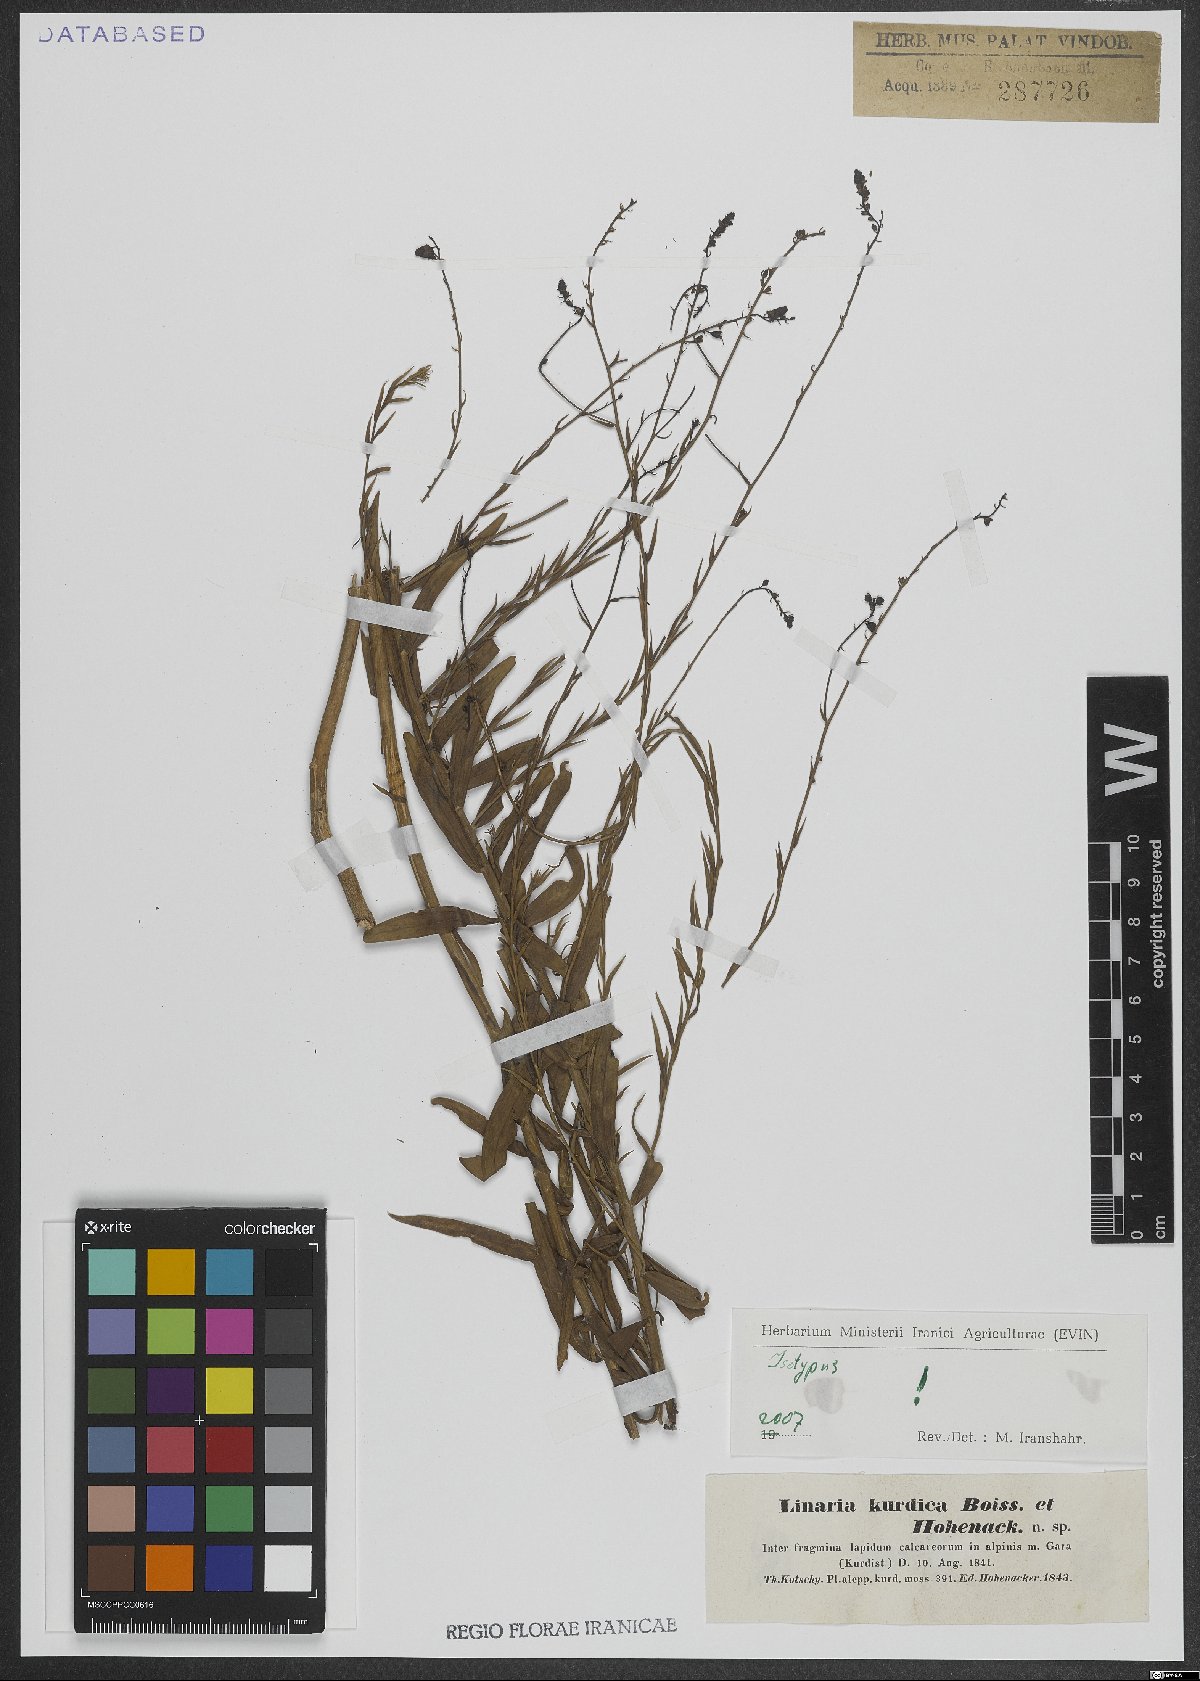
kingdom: Plantae
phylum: Tracheophyta
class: Magnoliopsida
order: Lamiales
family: Plantaginaceae
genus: Linaria
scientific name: Linaria kurdica
